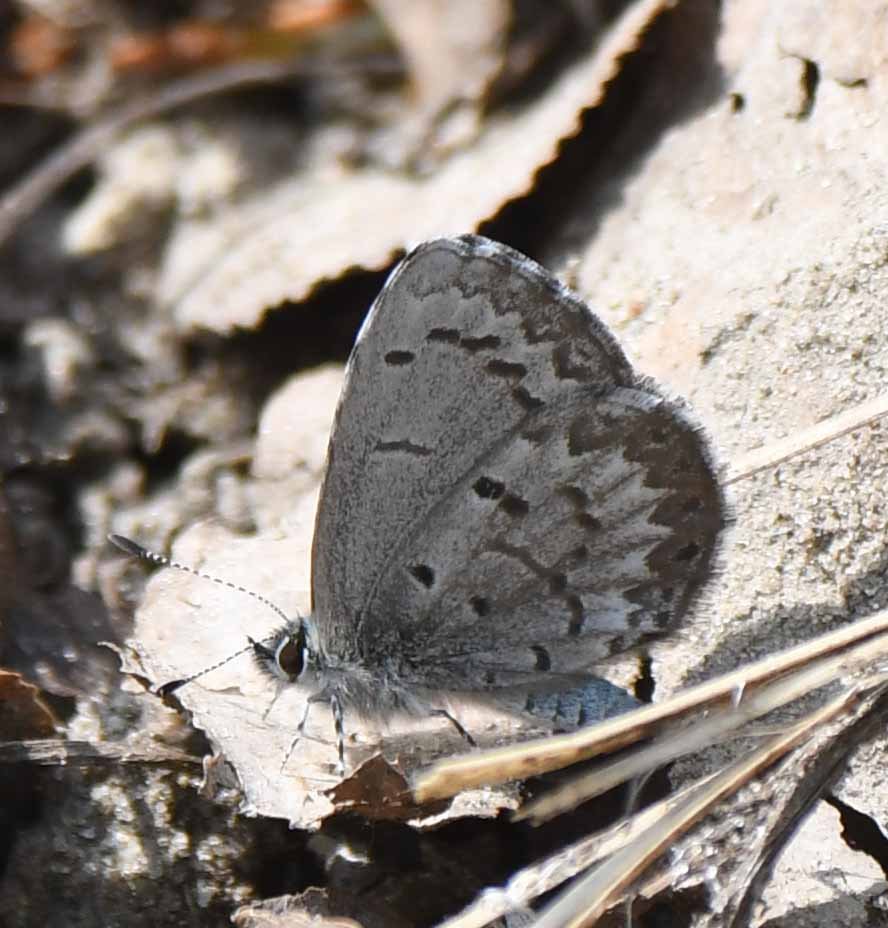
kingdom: Animalia
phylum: Arthropoda
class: Insecta
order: Lepidoptera
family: Lycaenidae
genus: Celastrina
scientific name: Celastrina
